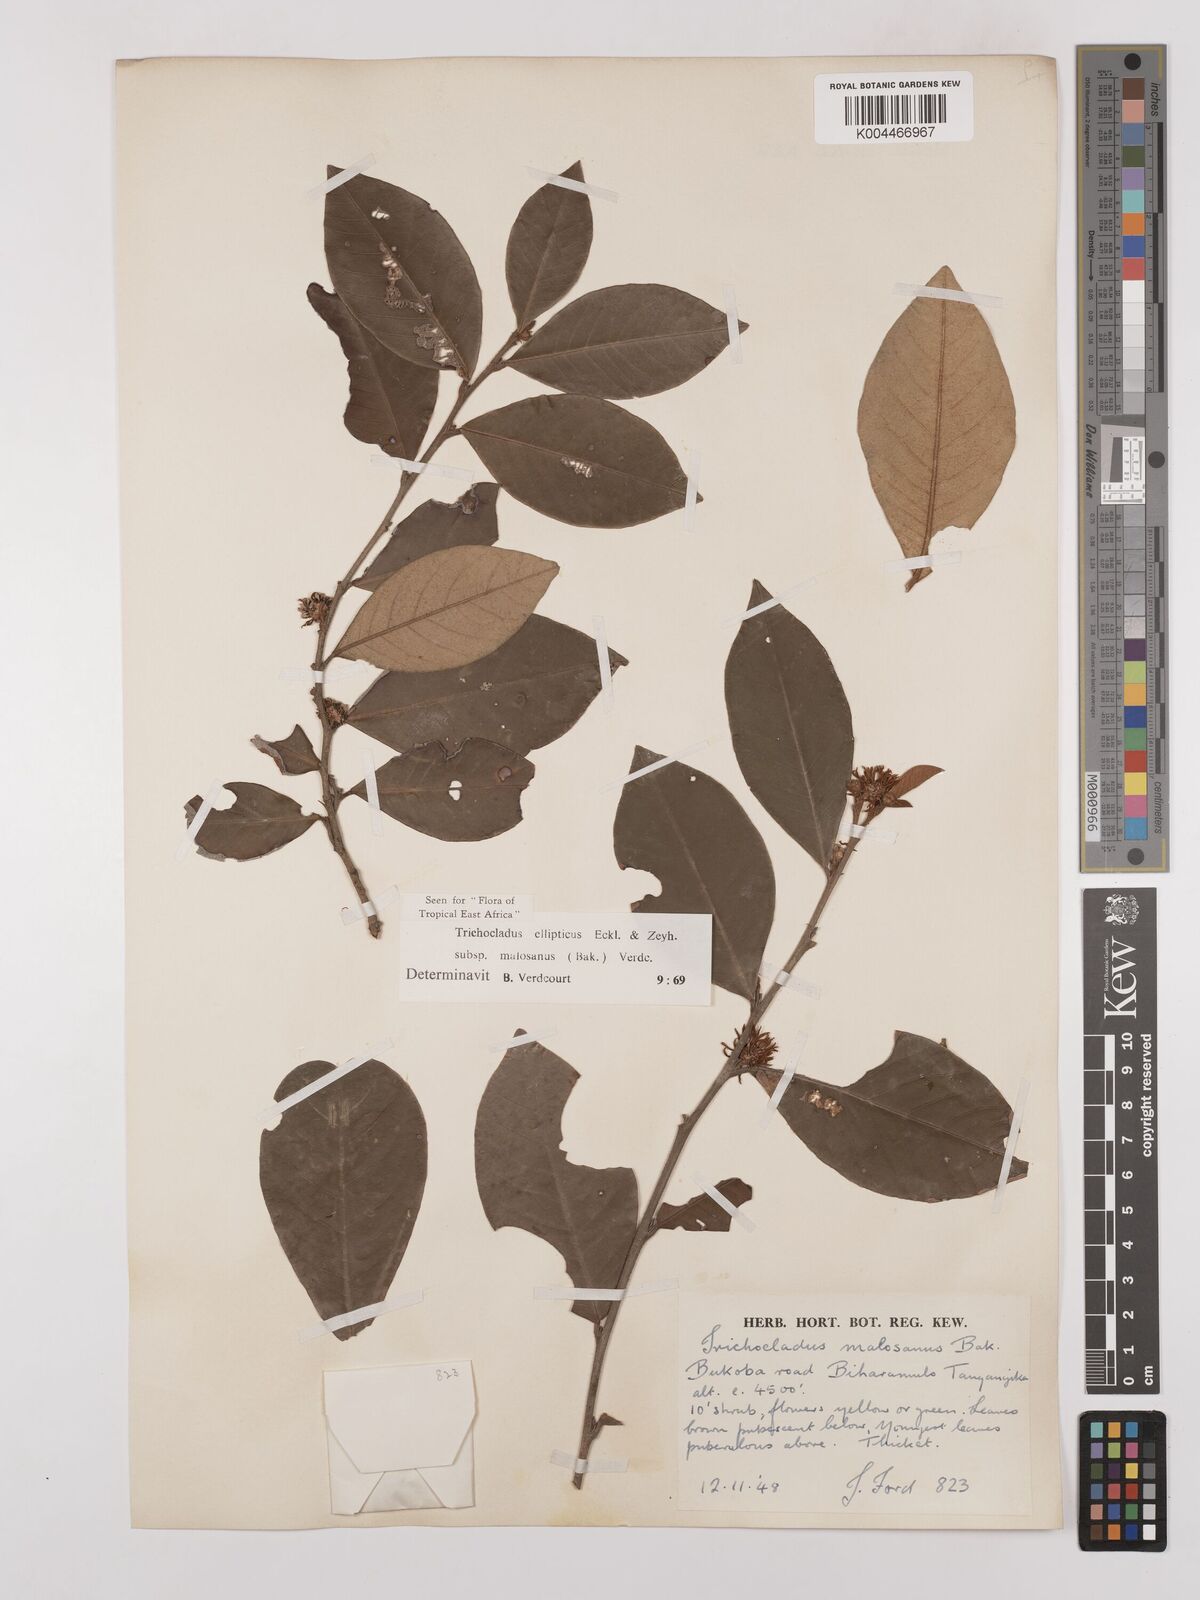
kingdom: Plantae
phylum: Tracheophyta
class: Magnoliopsida
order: Saxifragales
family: Hamamelidaceae
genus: Trichocladus
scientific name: Trichocladus ellipticus
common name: White witch-hazel
